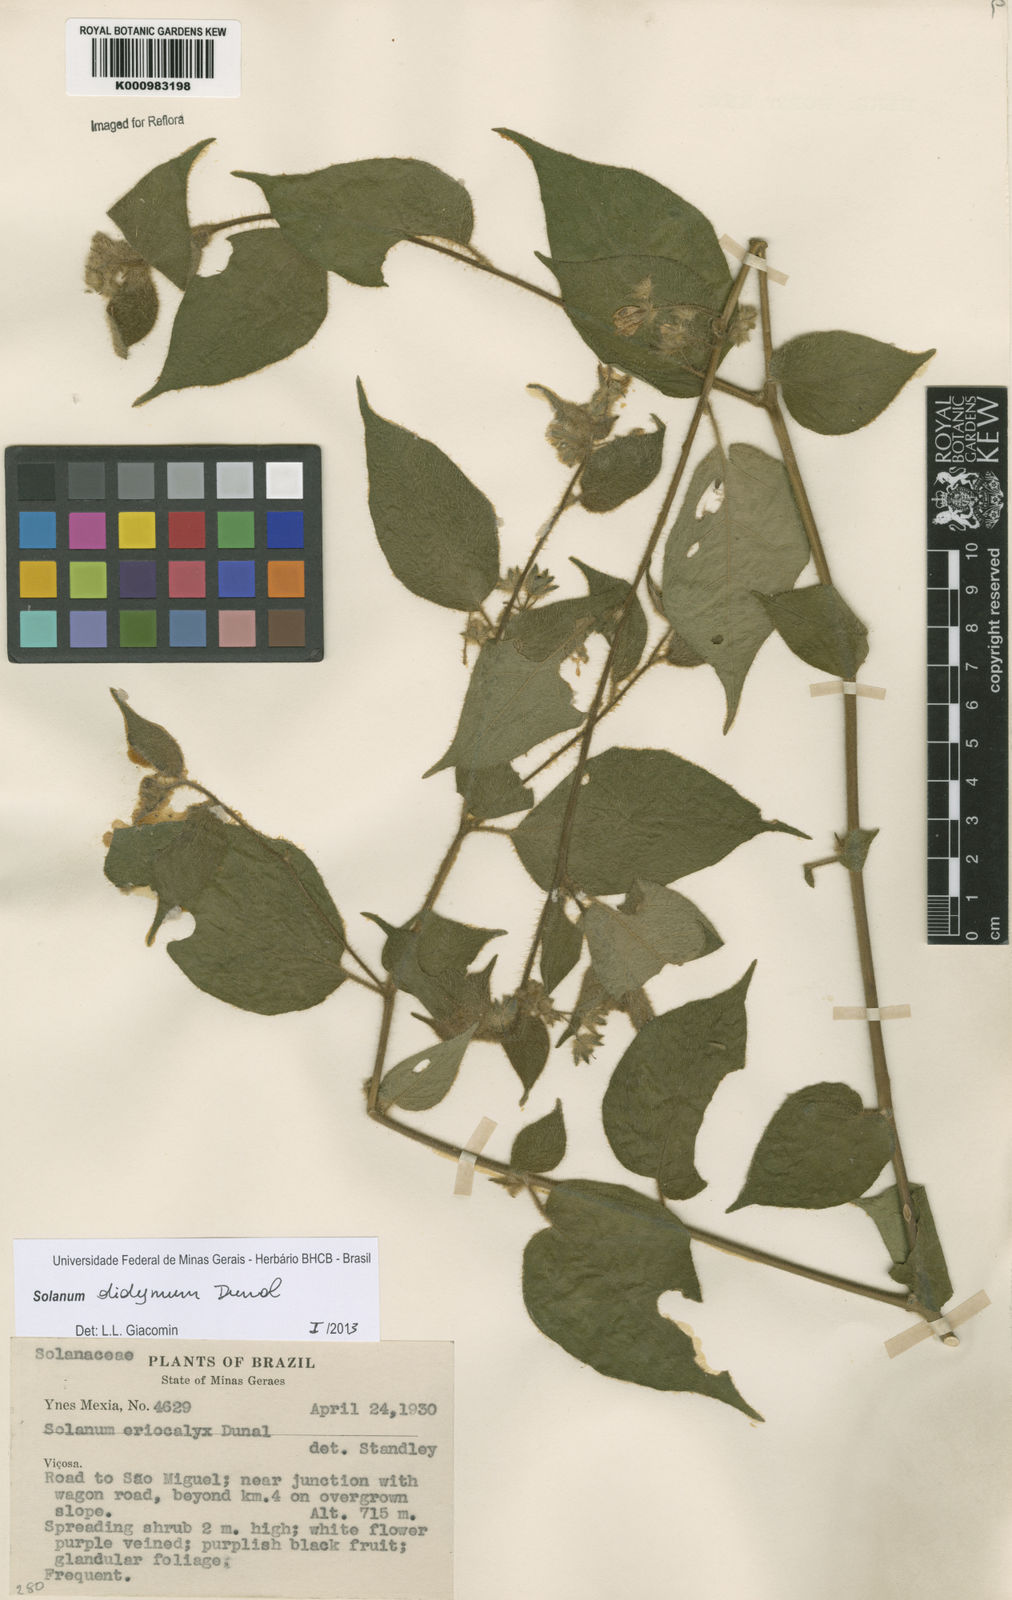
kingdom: Plantae
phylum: Tracheophyta
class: Magnoliopsida
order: Solanales
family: Solanaceae
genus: Solanum
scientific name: Solanum didymum
